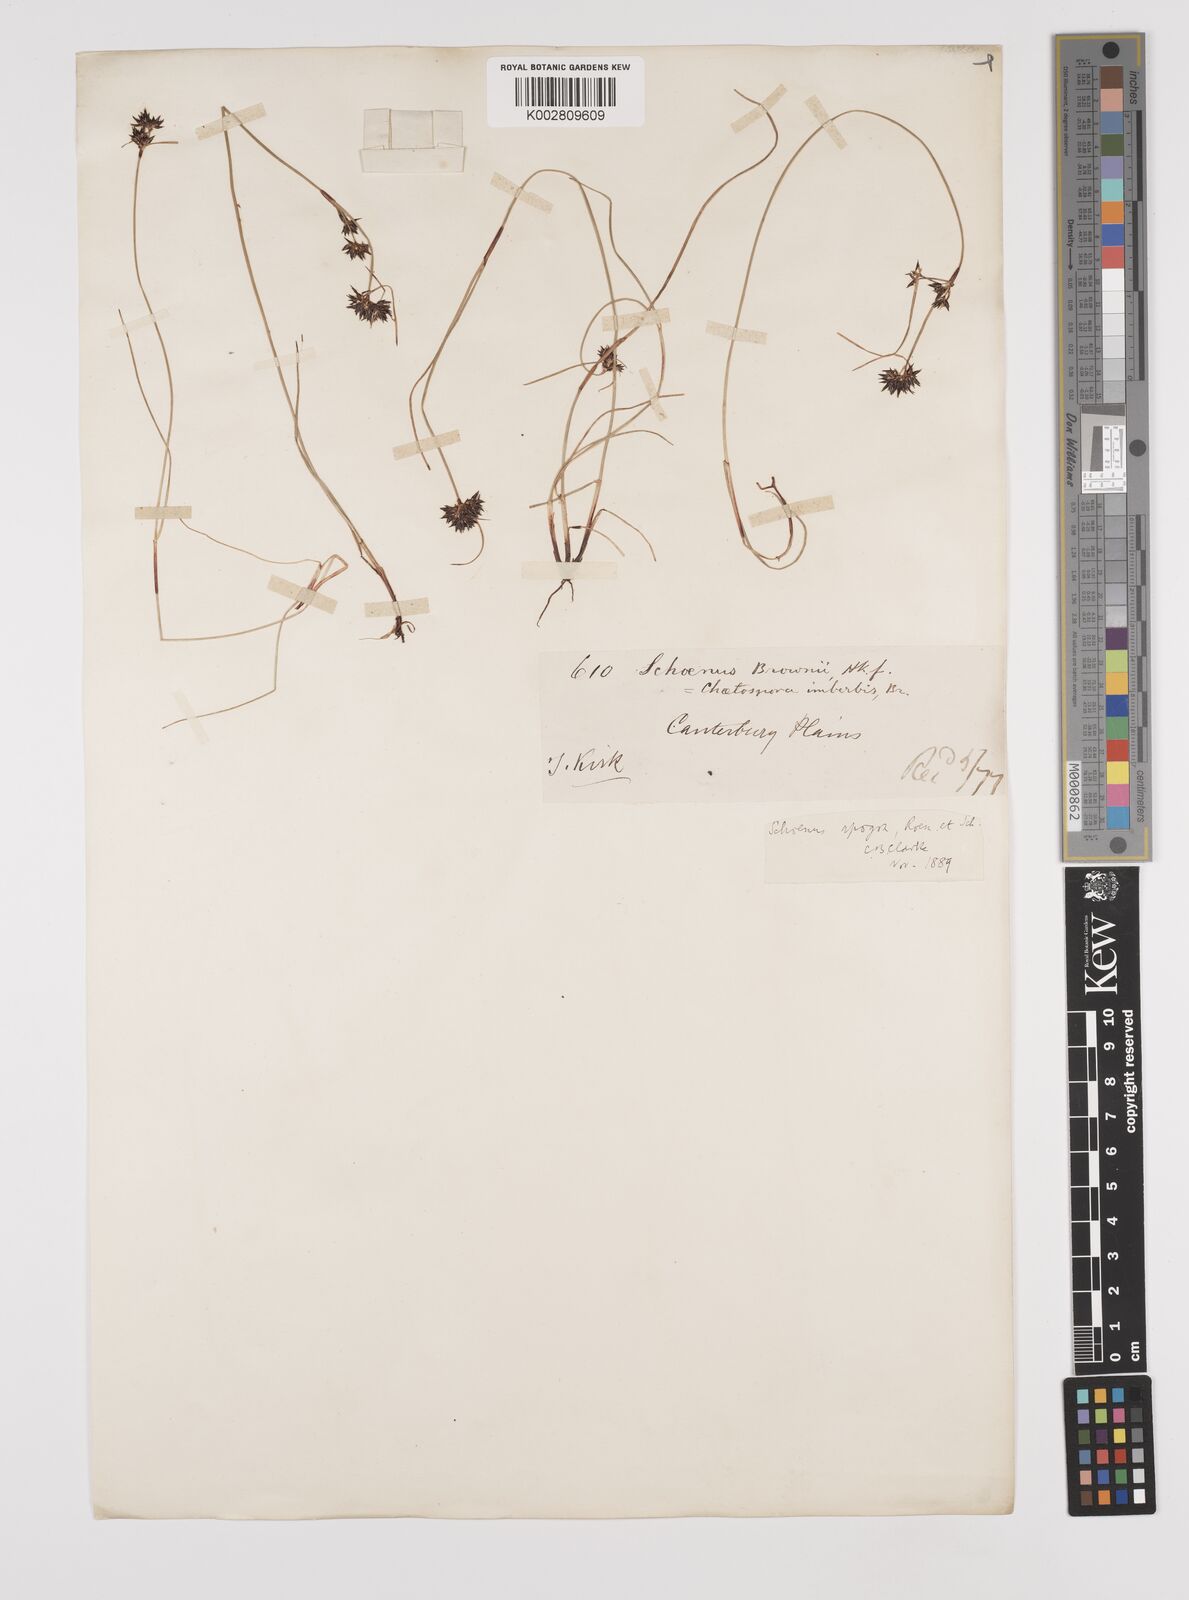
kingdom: Plantae
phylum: Tracheophyta
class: Liliopsida
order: Poales
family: Cyperaceae
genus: Schoenus
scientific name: Schoenus apogon
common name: Smooth bogrush
